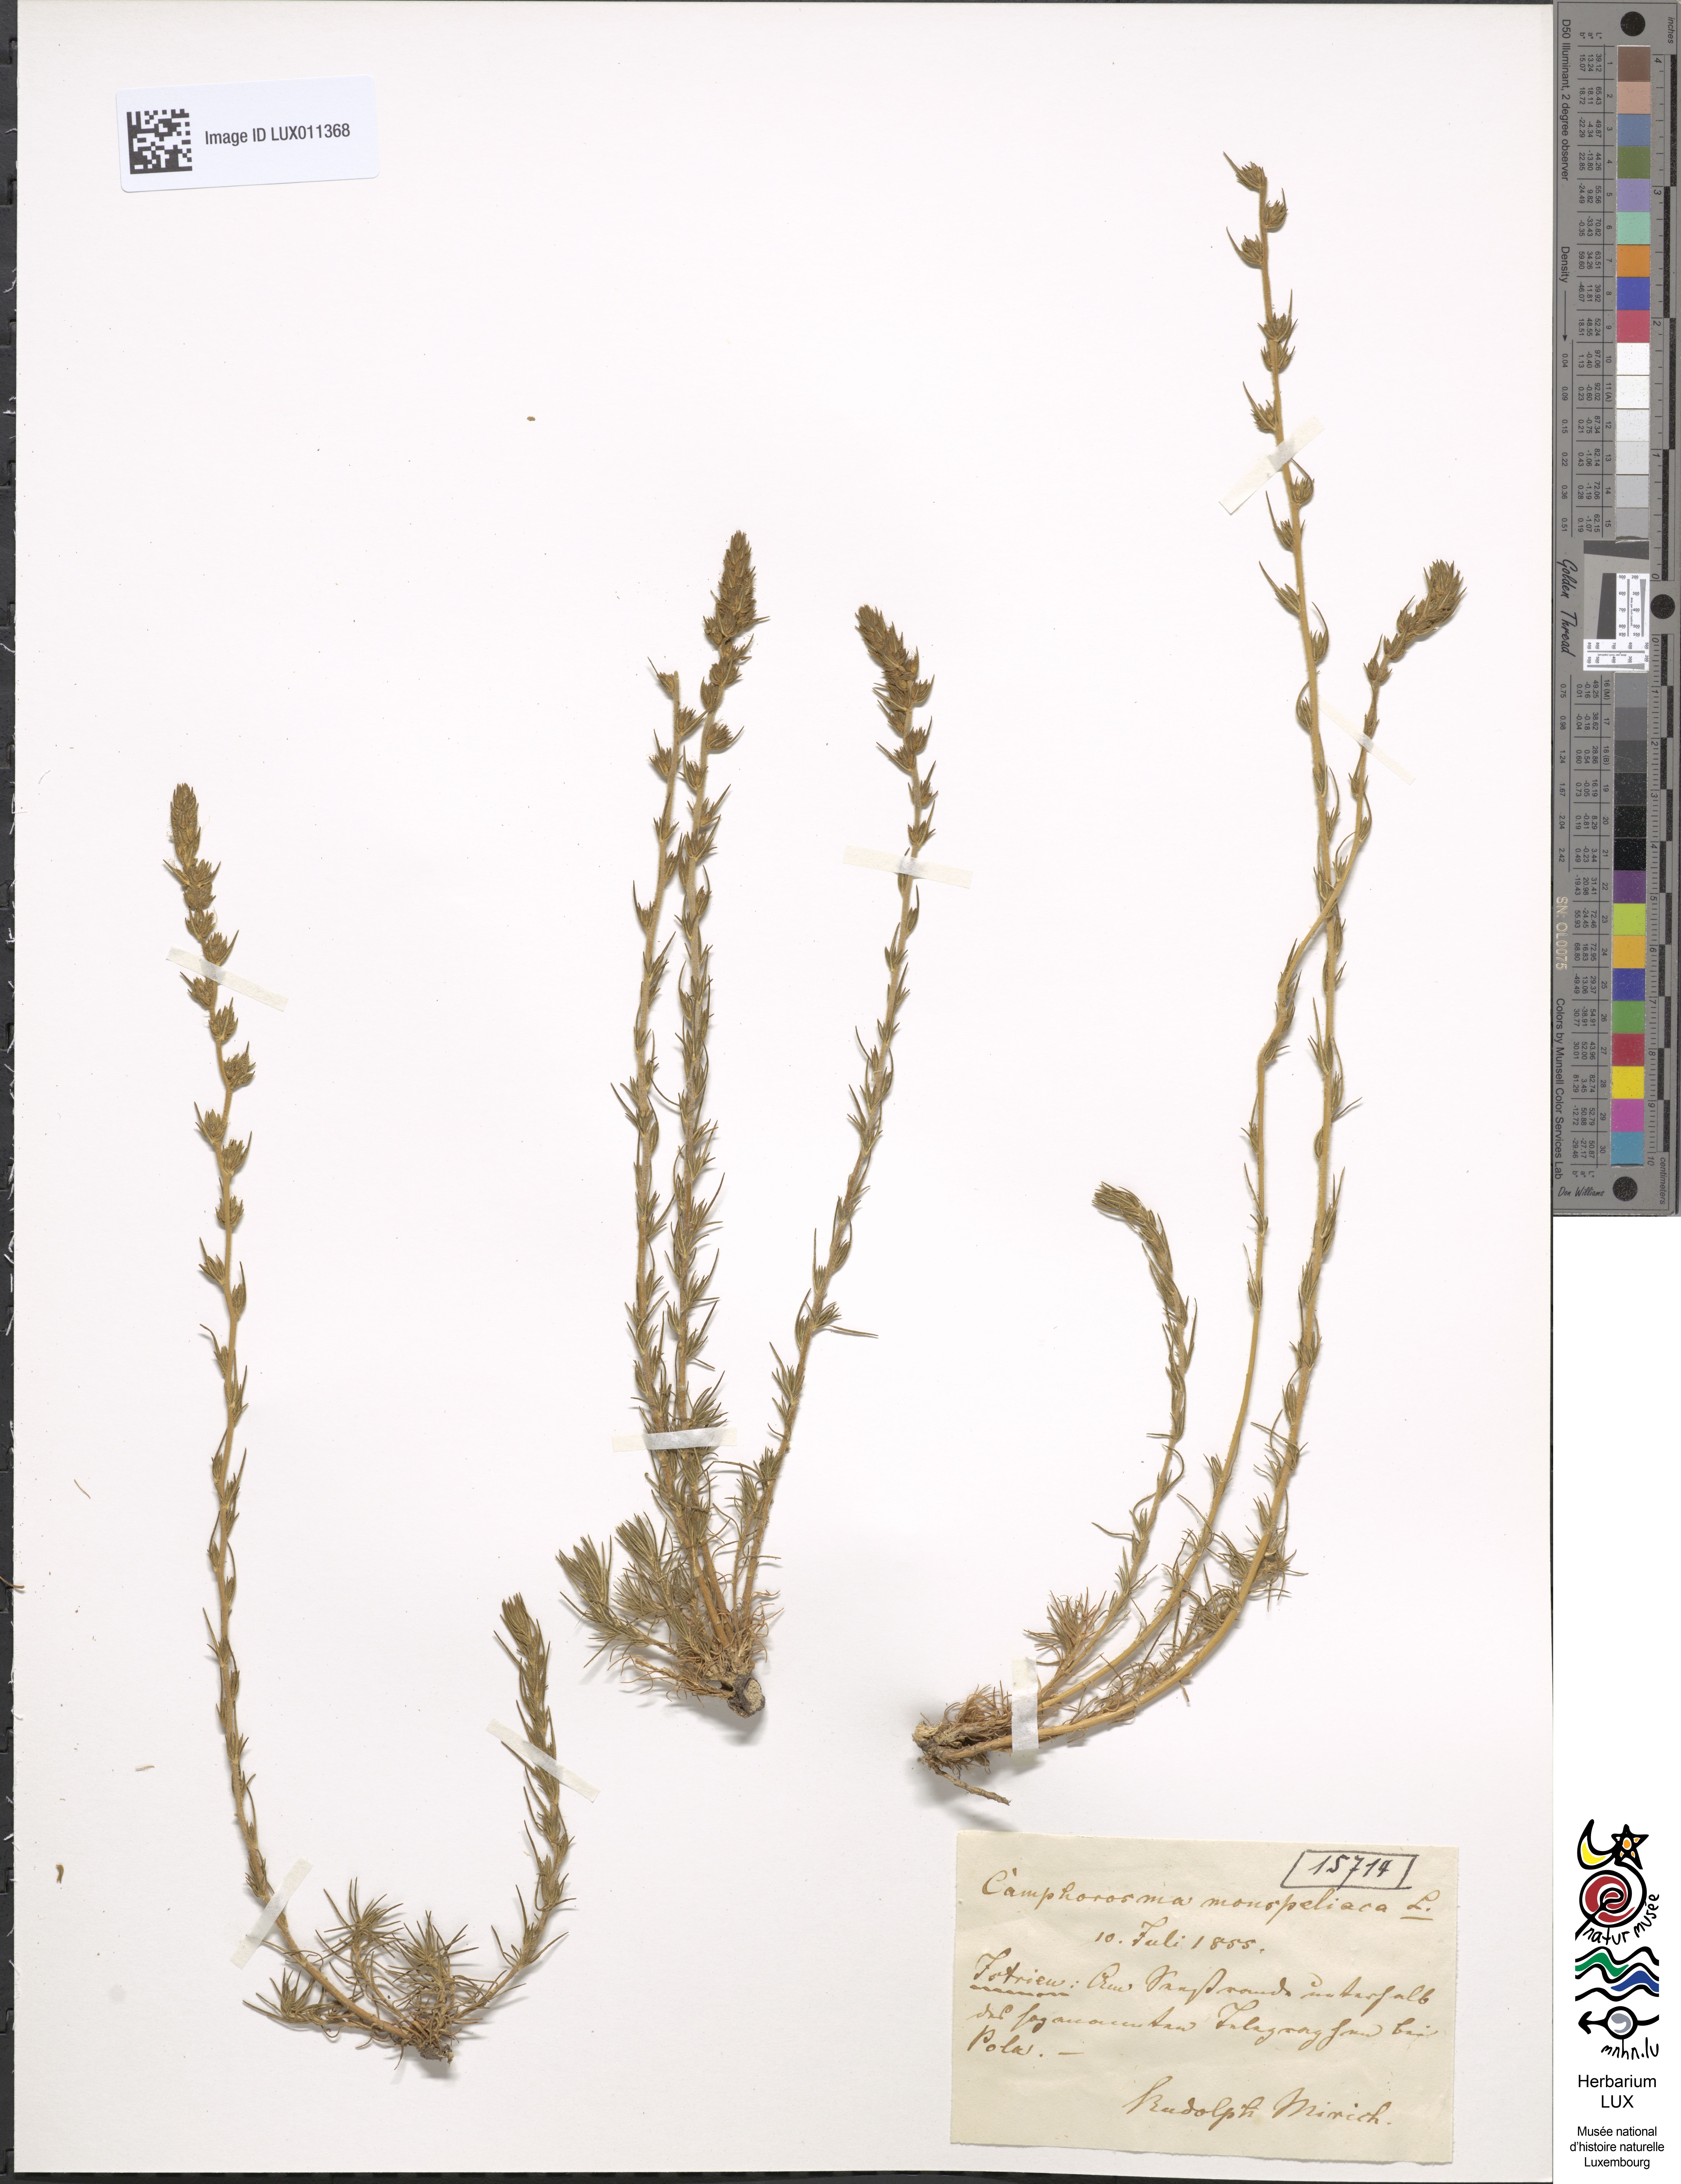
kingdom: Plantae
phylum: Tracheophyta
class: Magnoliopsida
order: Caryophyllales
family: Amaranthaceae
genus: Camphorosma
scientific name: Camphorosma monspeliaca
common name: Camphorfume
